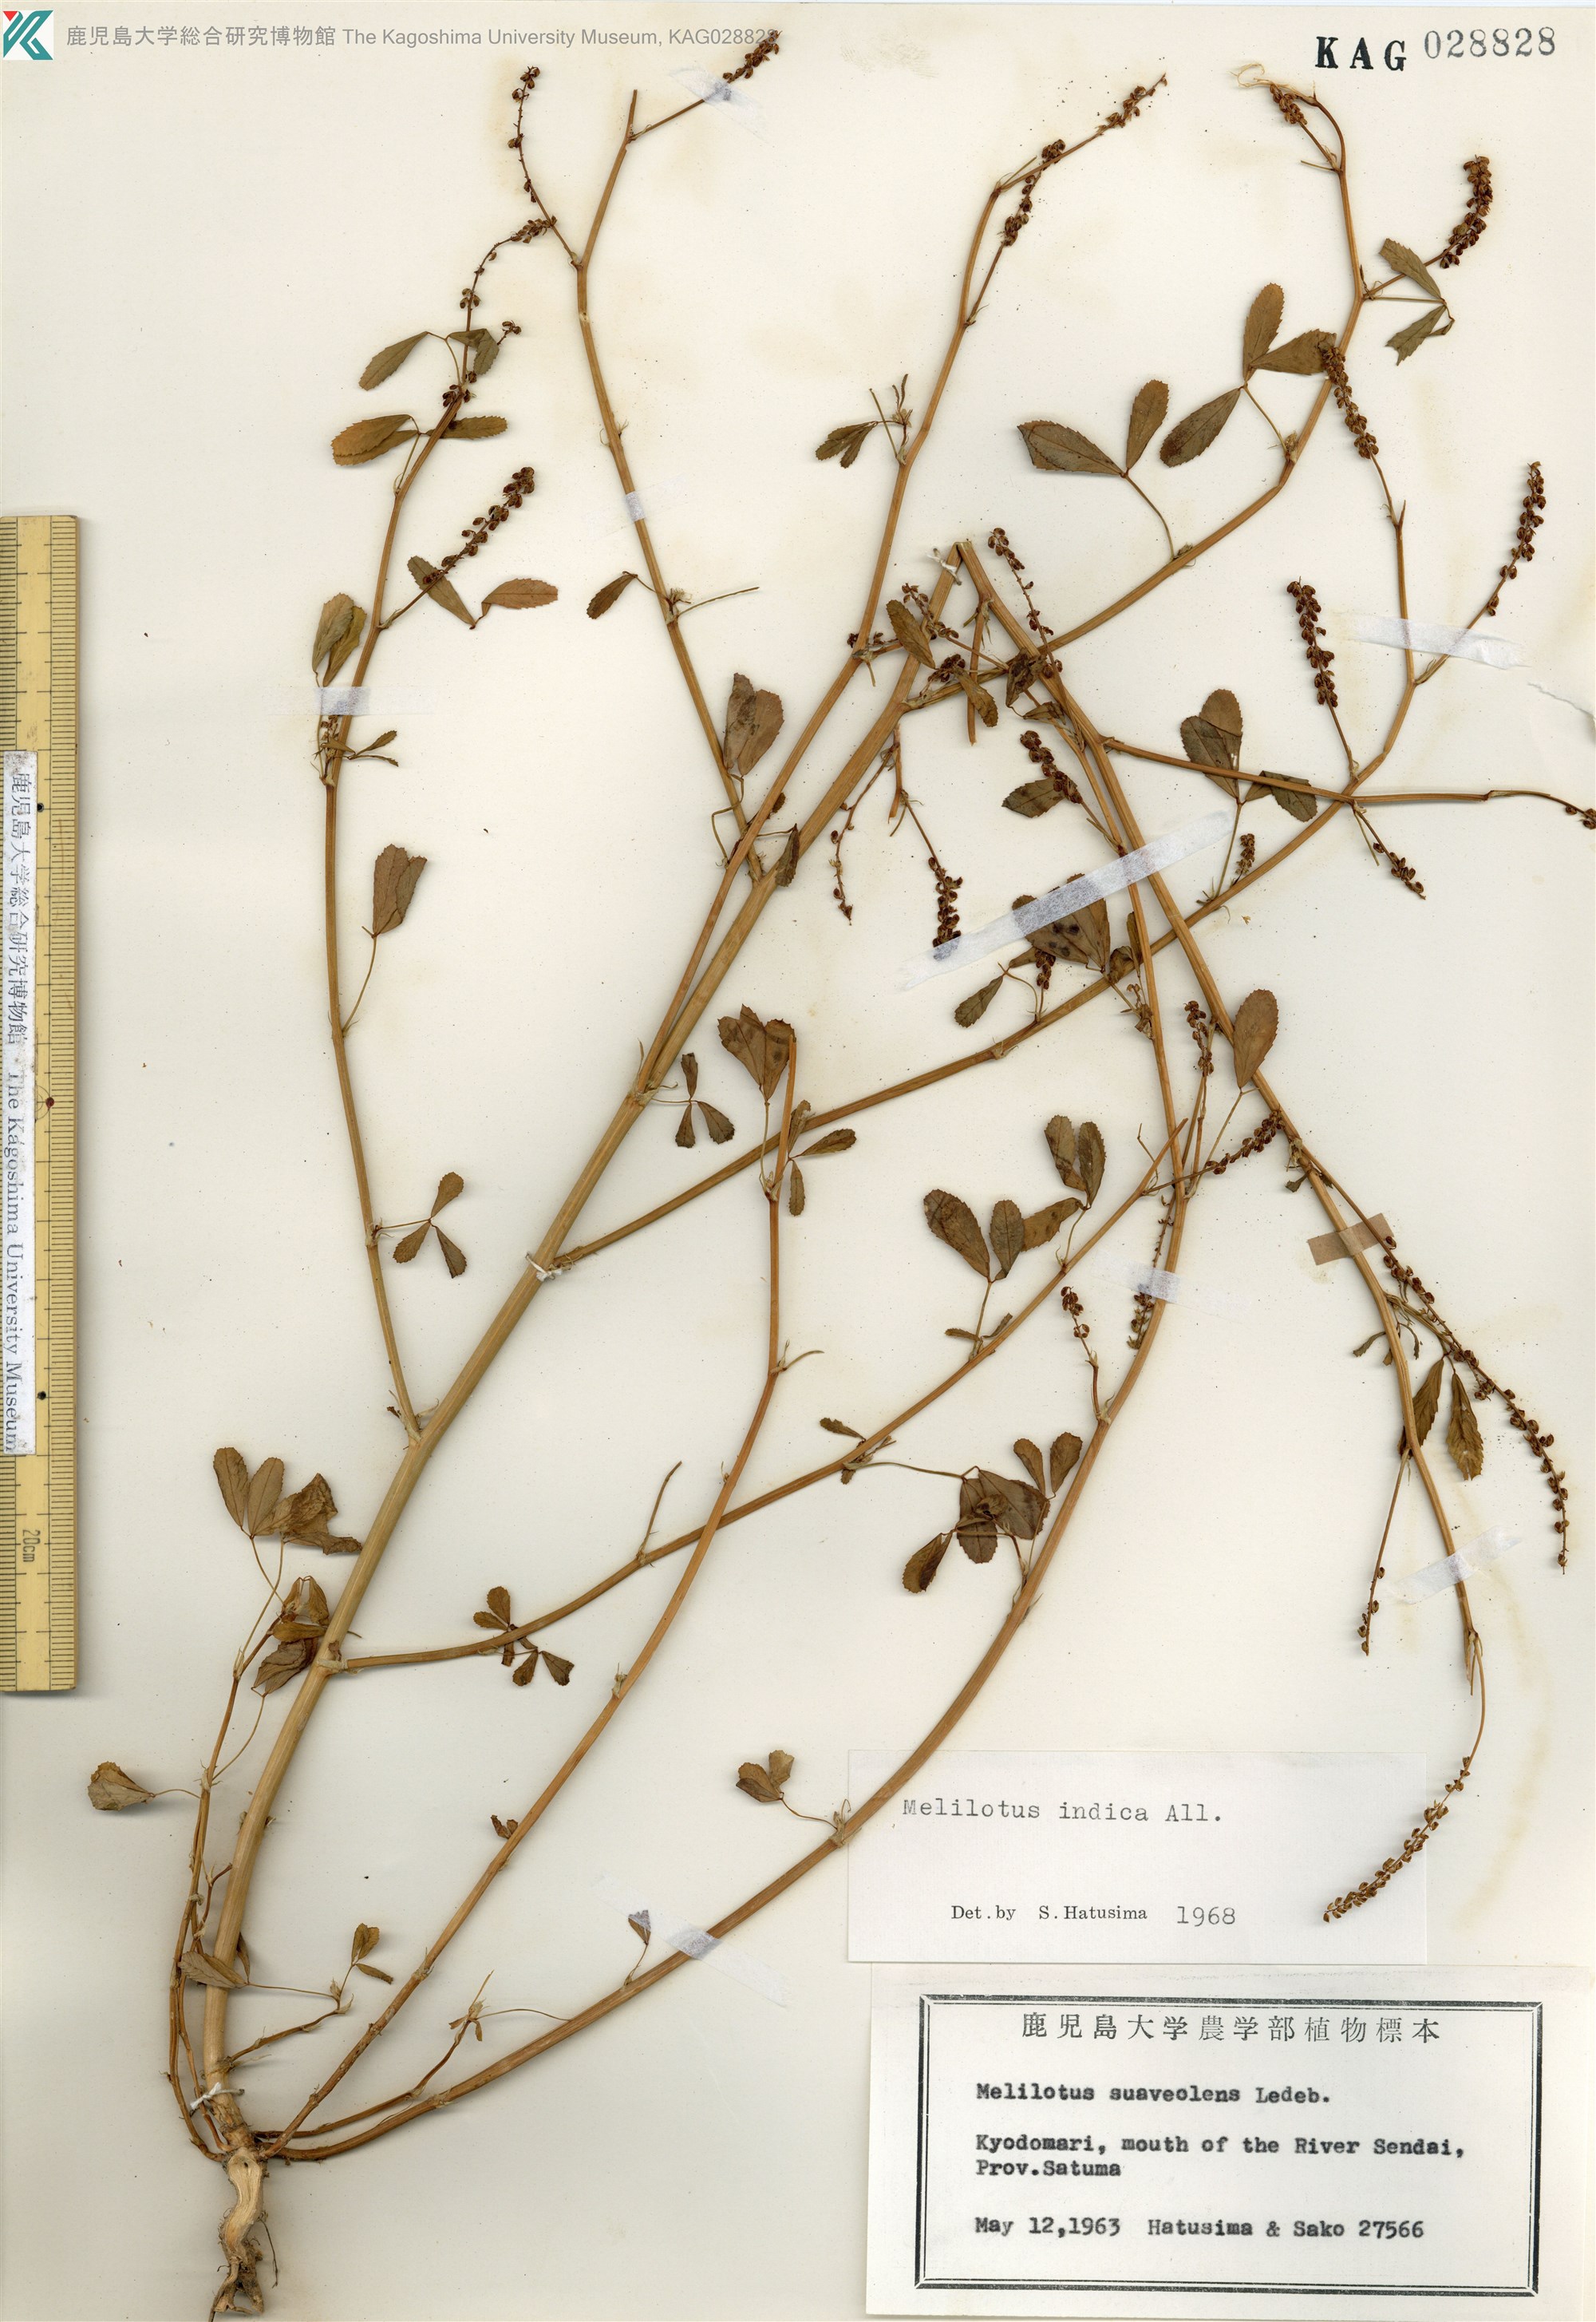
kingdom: Plantae
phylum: Tracheophyta
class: Magnoliopsida
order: Fabales
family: Fabaceae
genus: Melilotus
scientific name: Melilotus indicus
